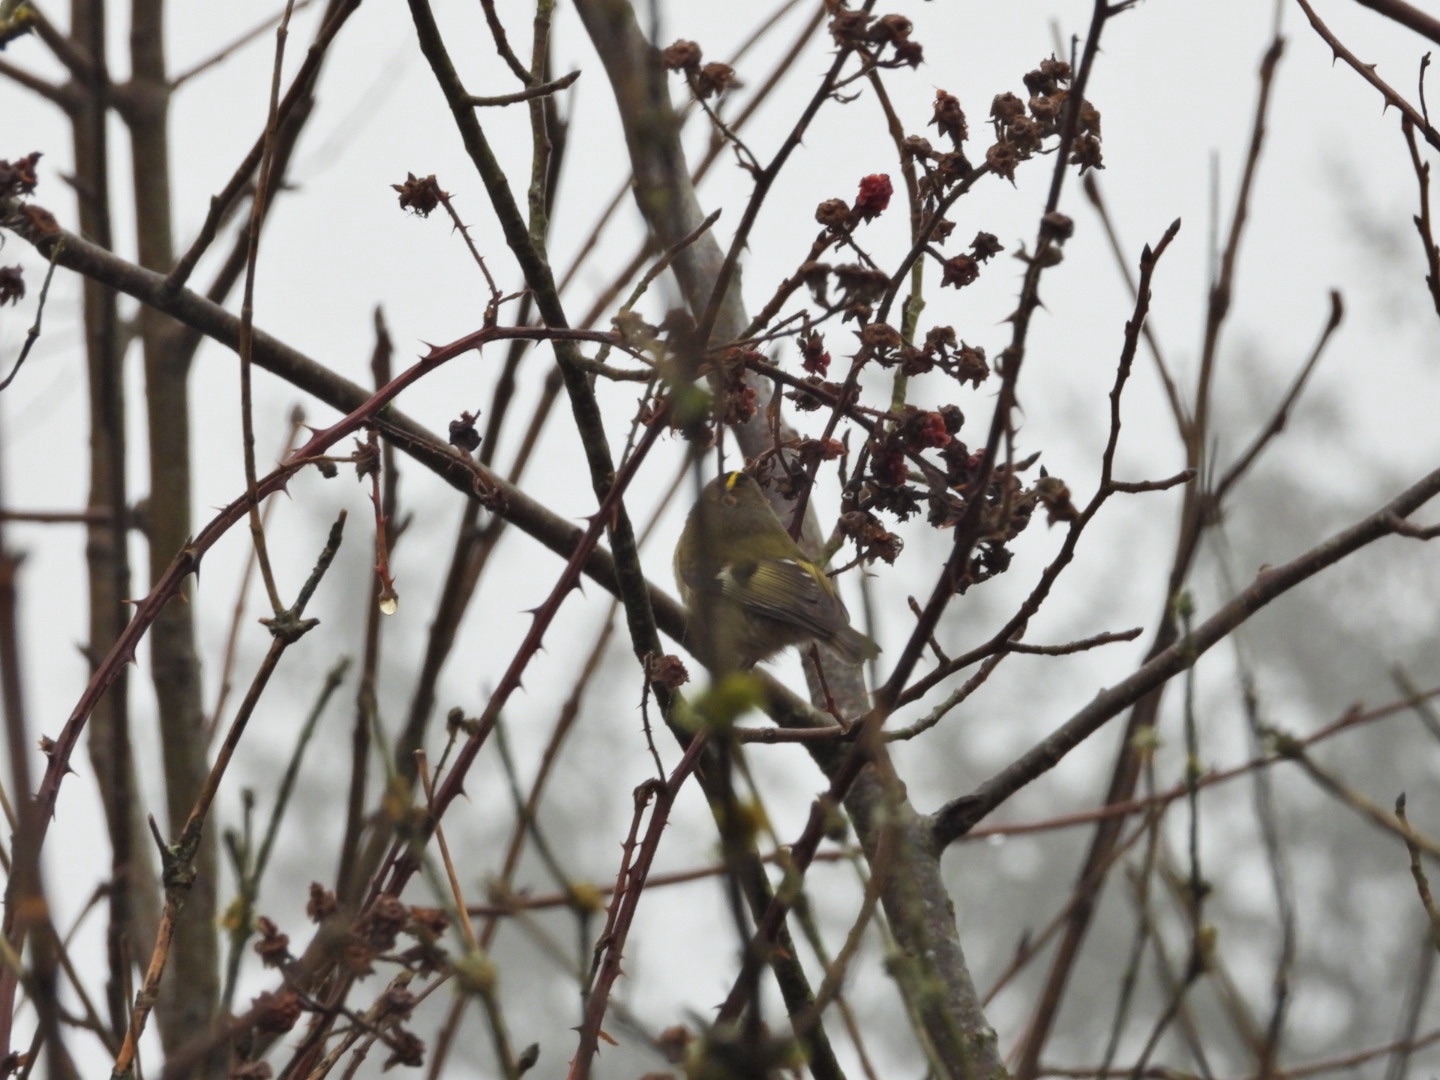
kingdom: Animalia
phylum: Chordata
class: Aves
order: Passeriformes
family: Regulidae
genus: Regulus
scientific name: Regulus regulus
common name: Fuglekonge
